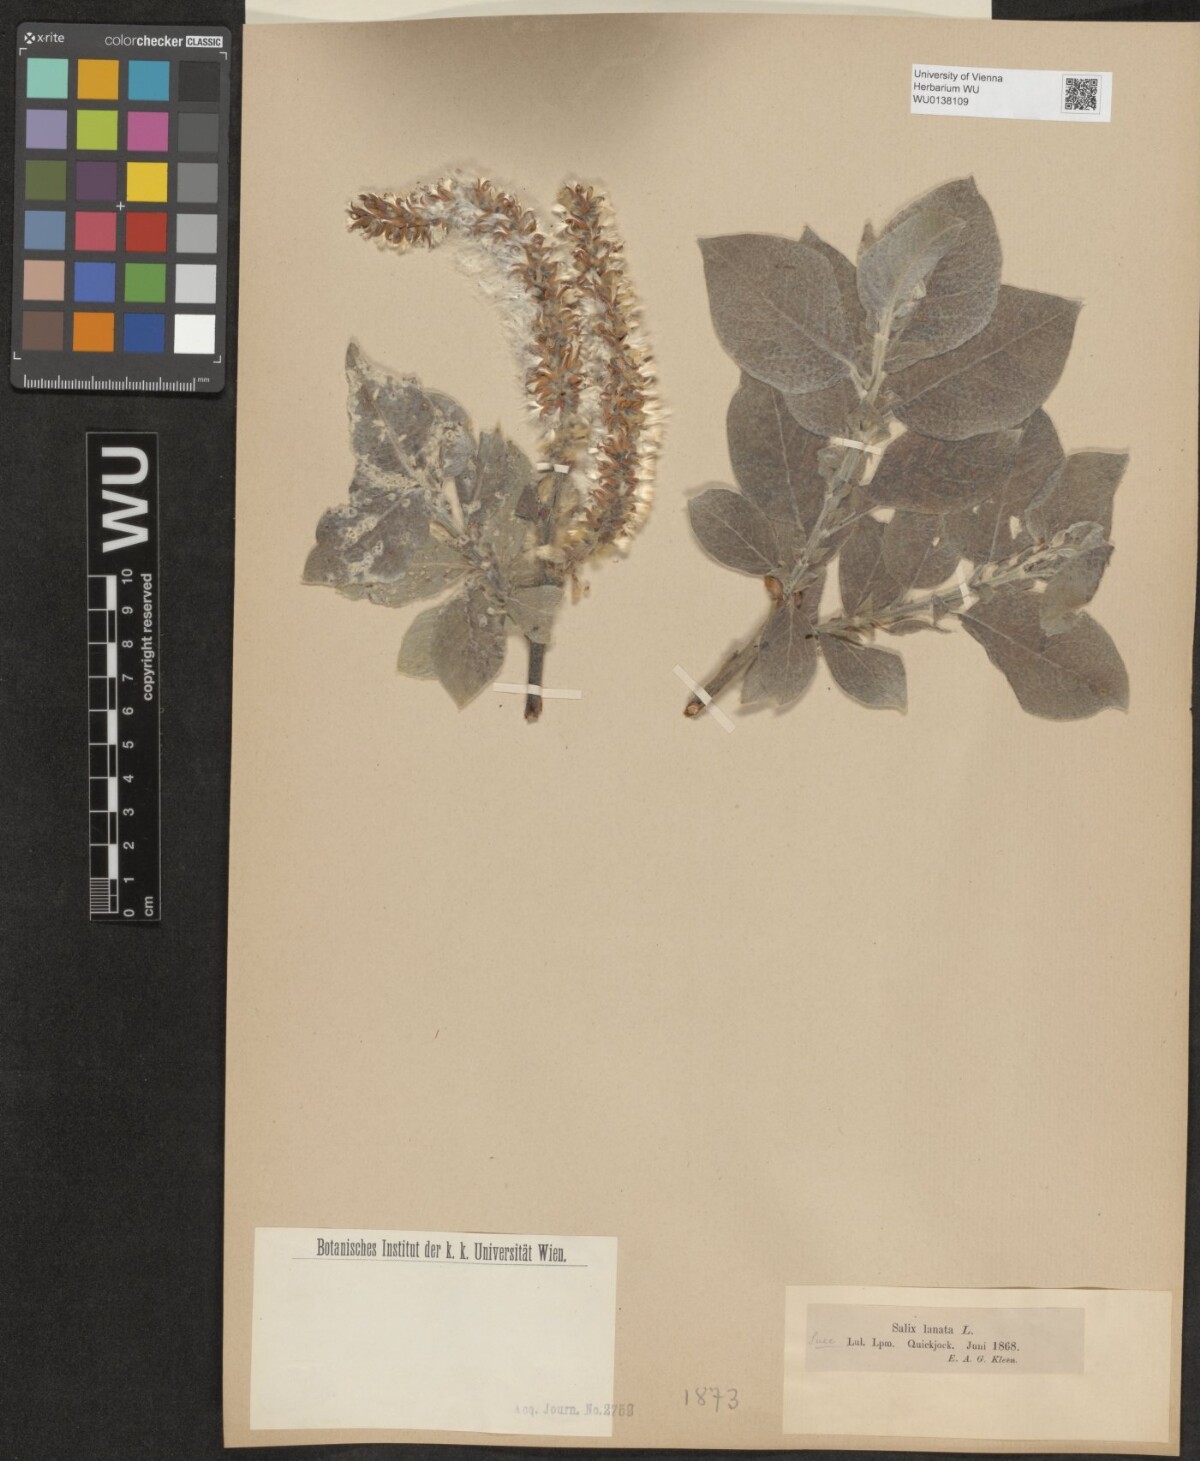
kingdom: Plantae
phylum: Tracheophyta
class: Magnoliopsida
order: Malpighiales
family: Salicaceae
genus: Salix
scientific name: Salix lanata
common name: Woolly willow
